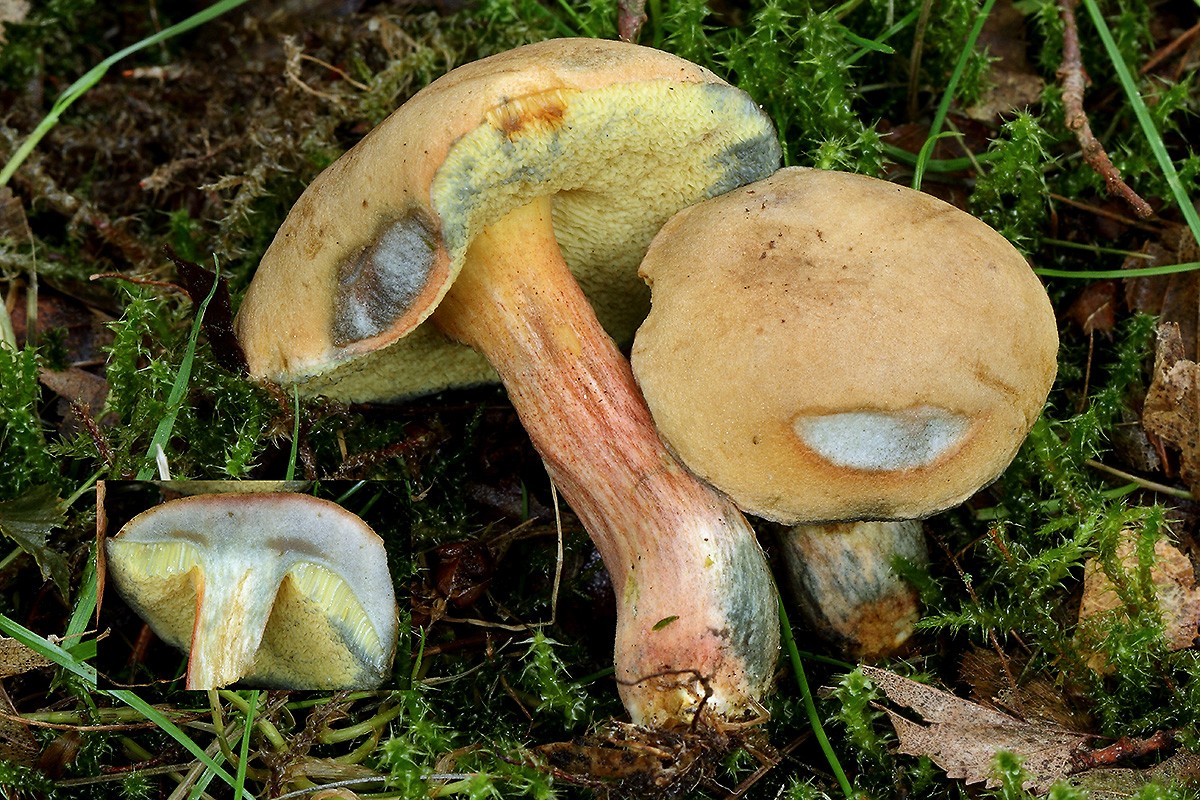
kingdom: Fungi
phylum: Basidiomycota
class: Agaricomycetes
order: Boletales
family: Boletaceae
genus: Hortiboletus
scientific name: Hortiboletus bubalinus
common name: aurora-rørhat
